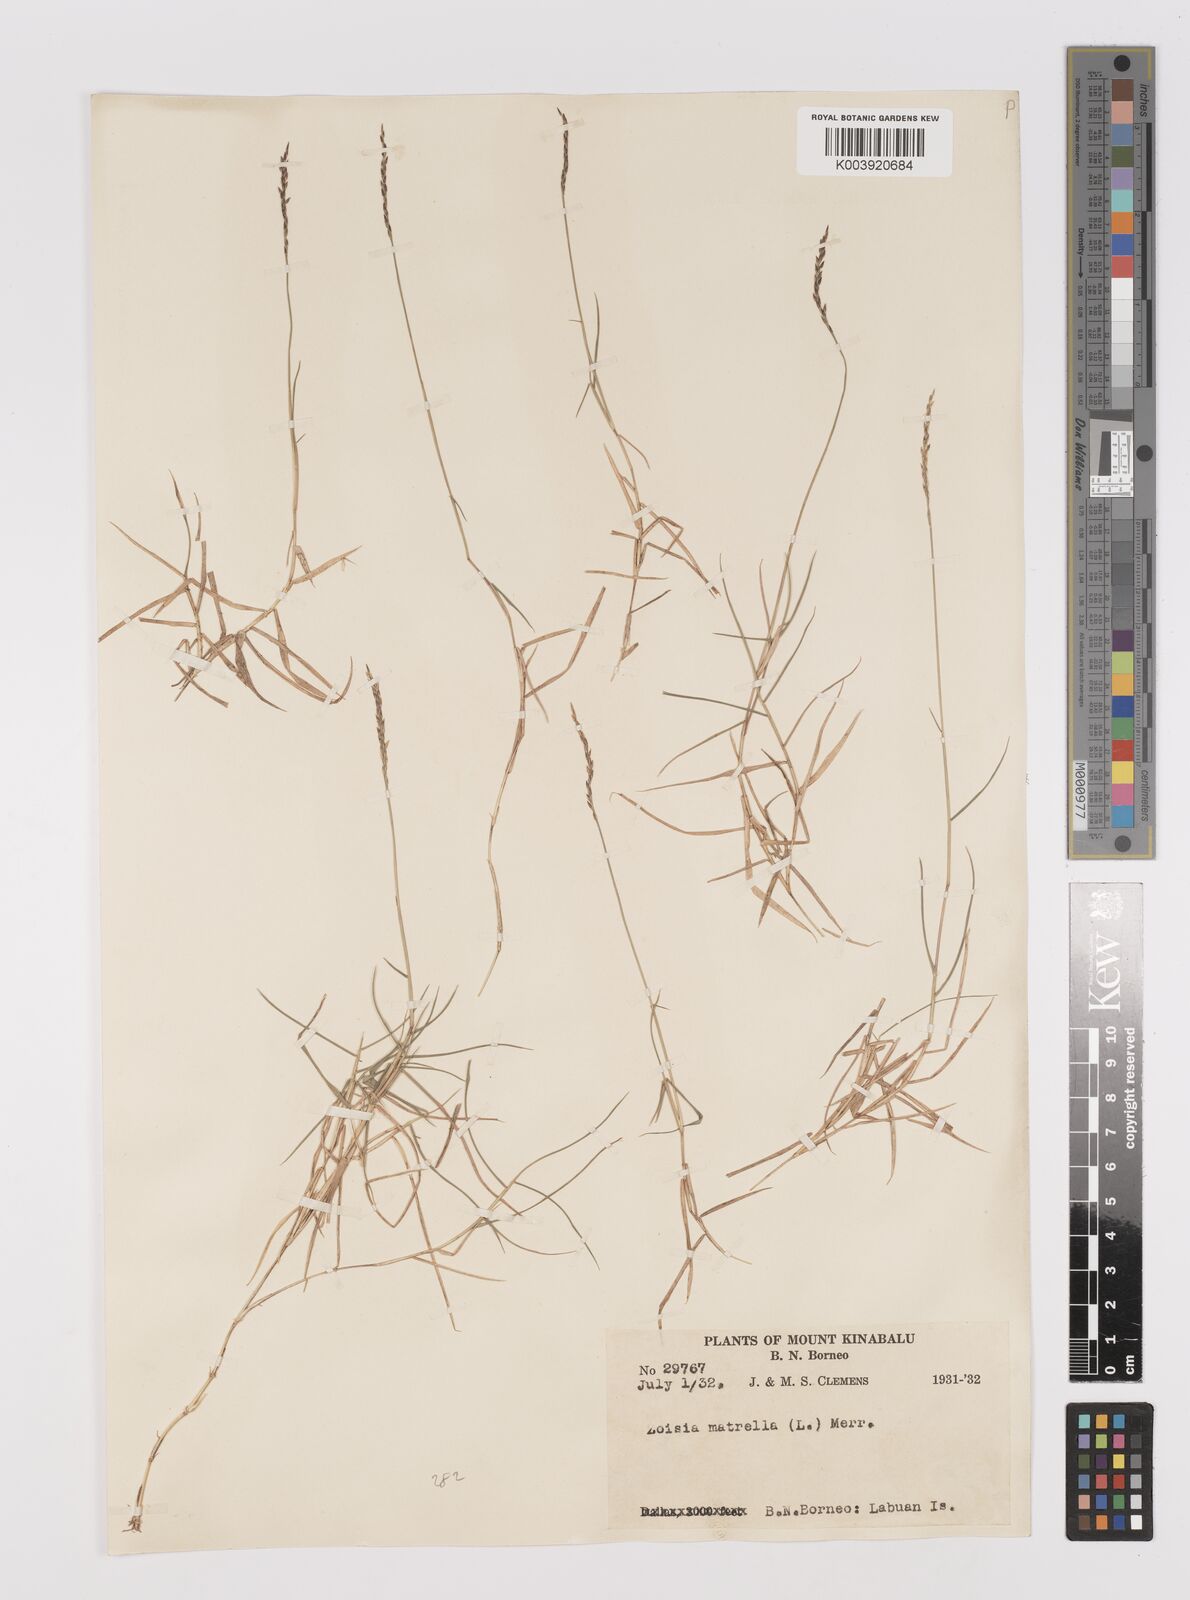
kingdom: Plantae
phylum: Tracheophyta
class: Liliopsida
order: Poales
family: Poaceae
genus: Zoysia
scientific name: Zoysia matrella
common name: Manila grass
